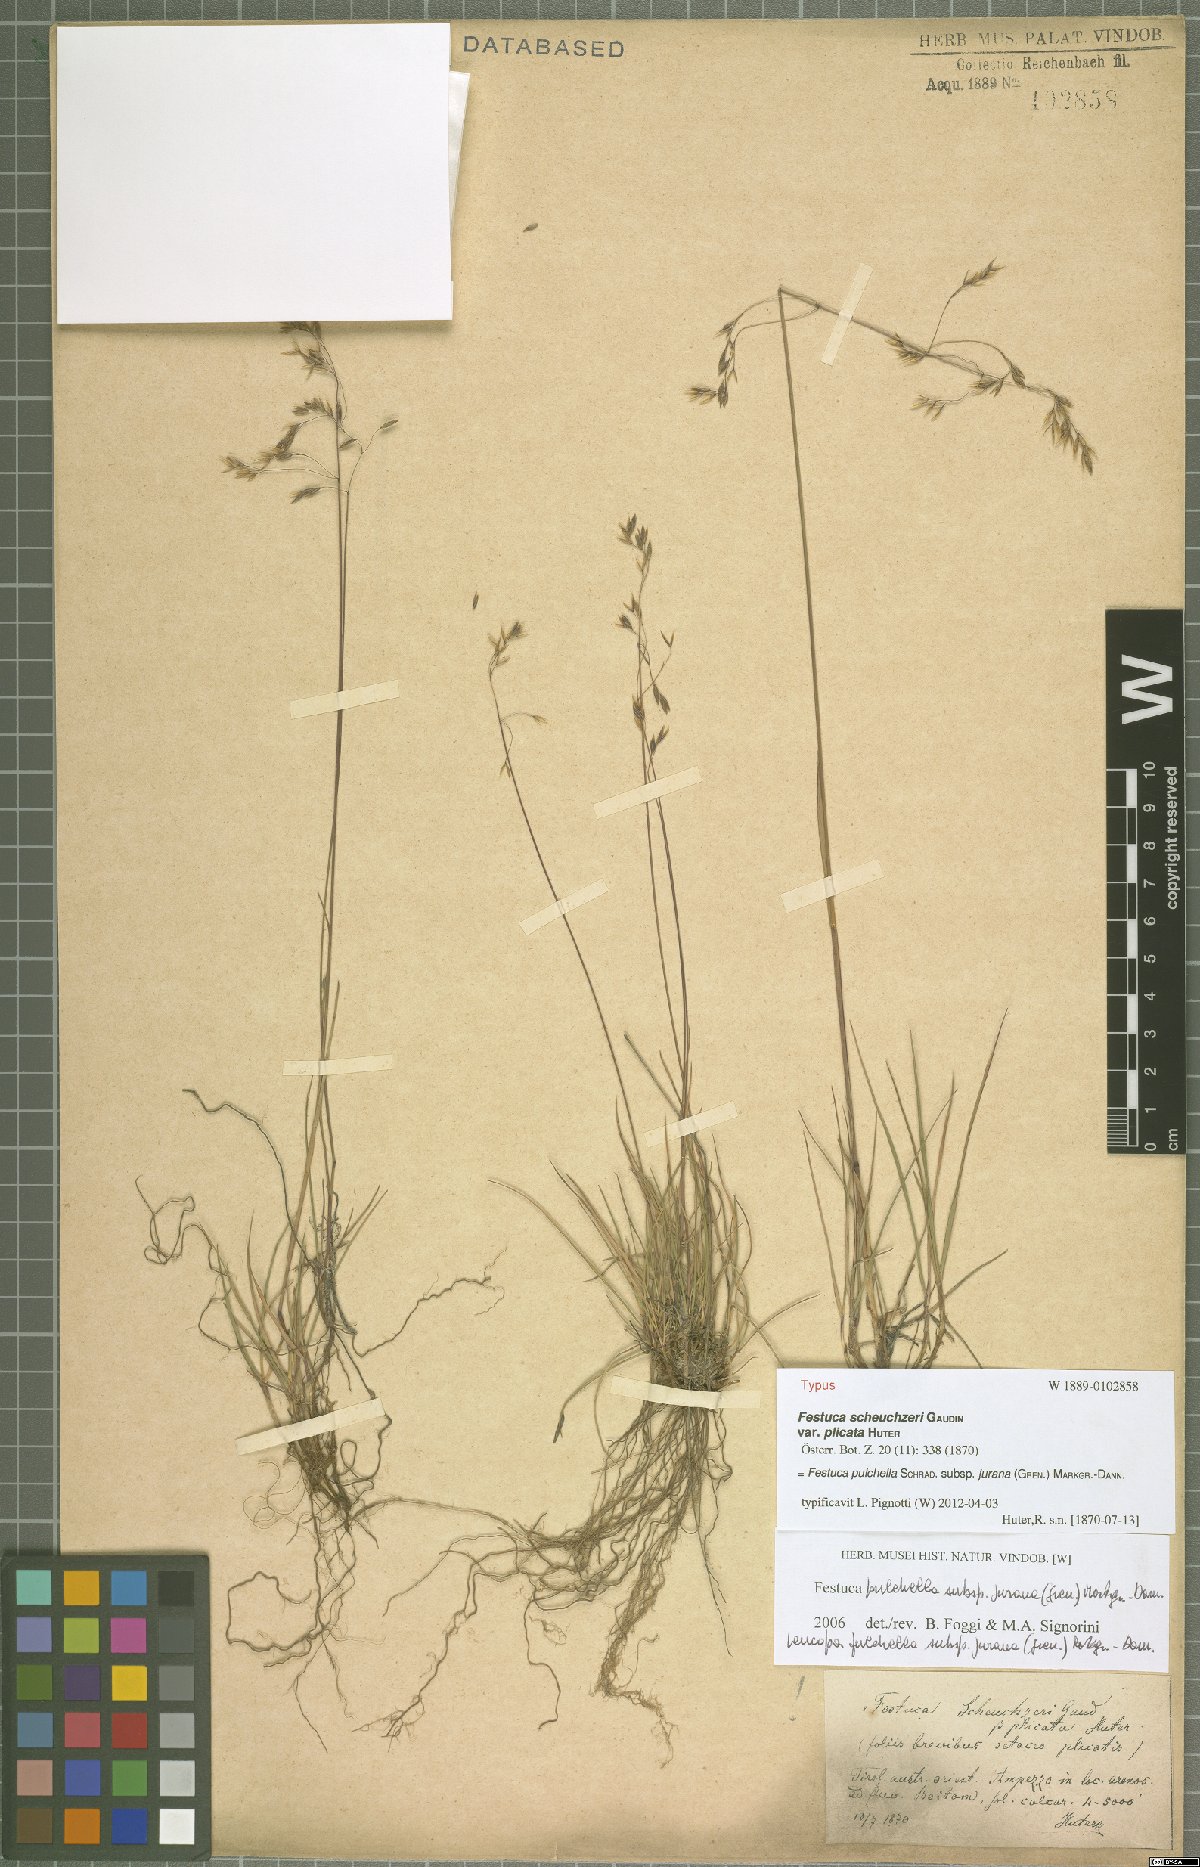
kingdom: Plantae
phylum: Tracheophyta
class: Liliopsida
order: Poales
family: Poaceae
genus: Festuca
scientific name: Festuca pulchella
